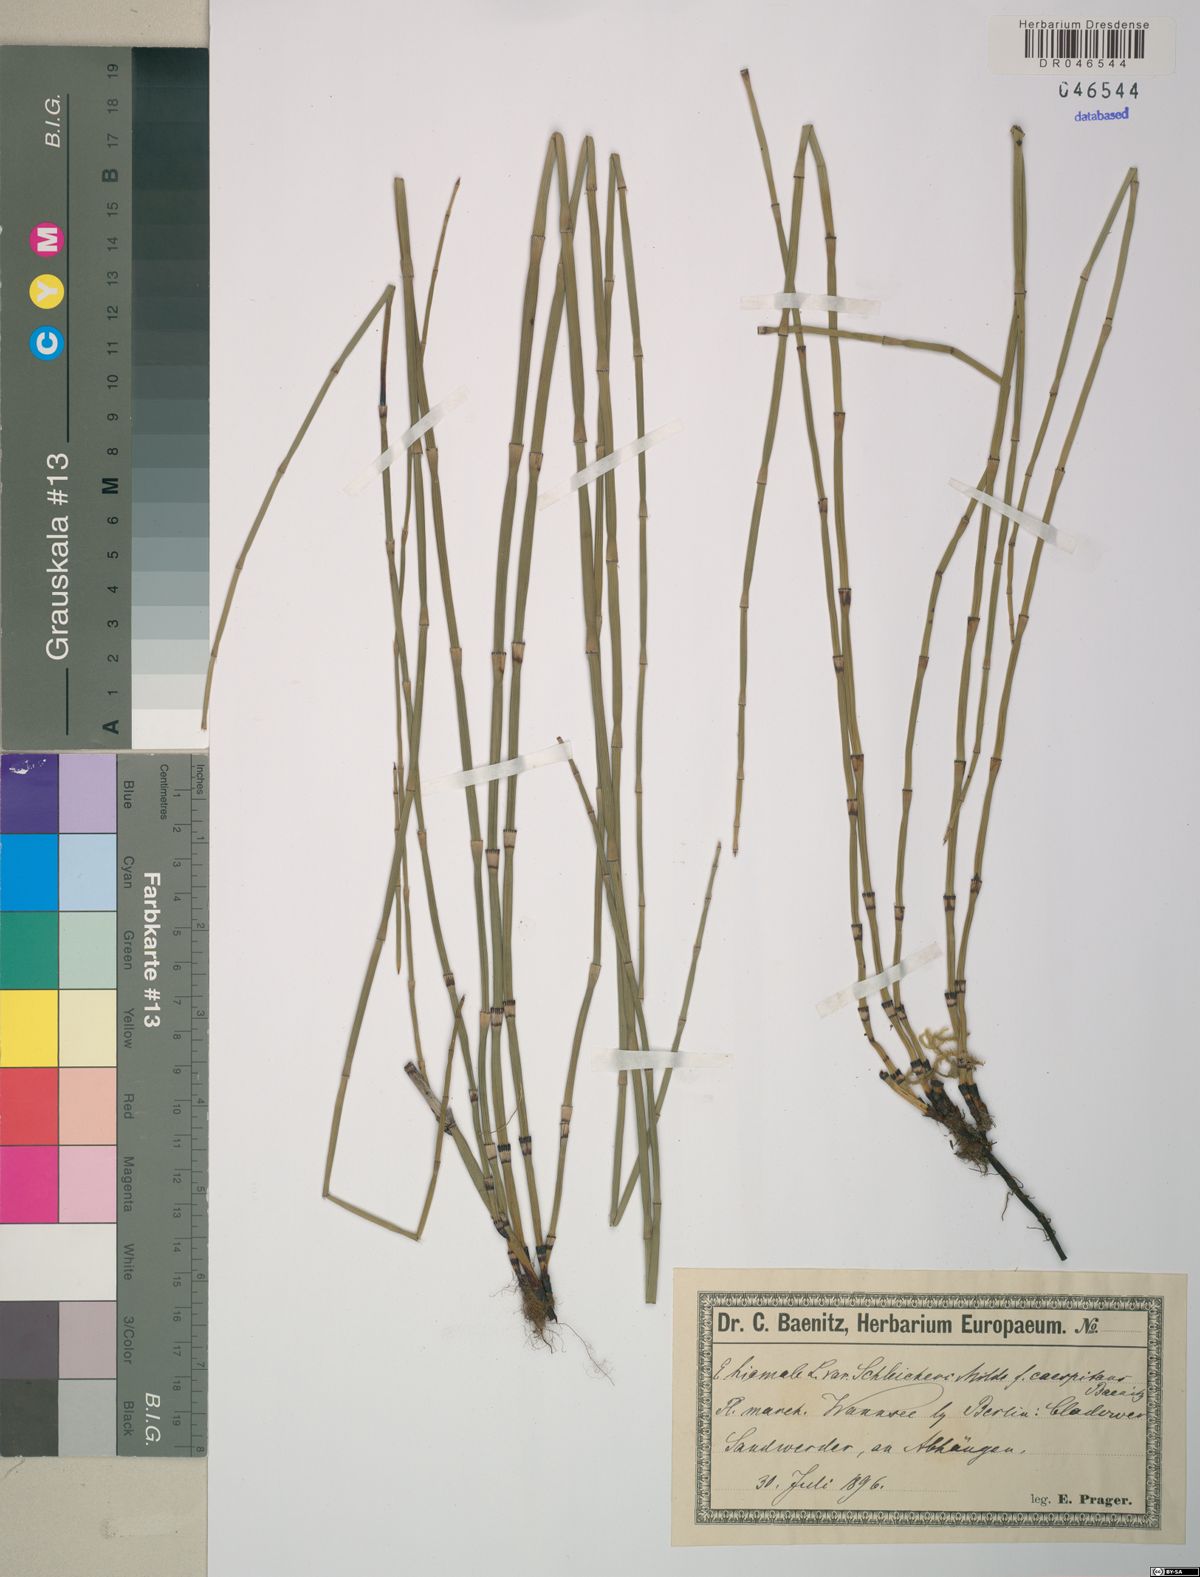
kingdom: Plantae
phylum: Tracheophyta
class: Polypodiopsida
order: Equisetales
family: Equisetaceae
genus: Equisetum
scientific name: Equisetum moorei
